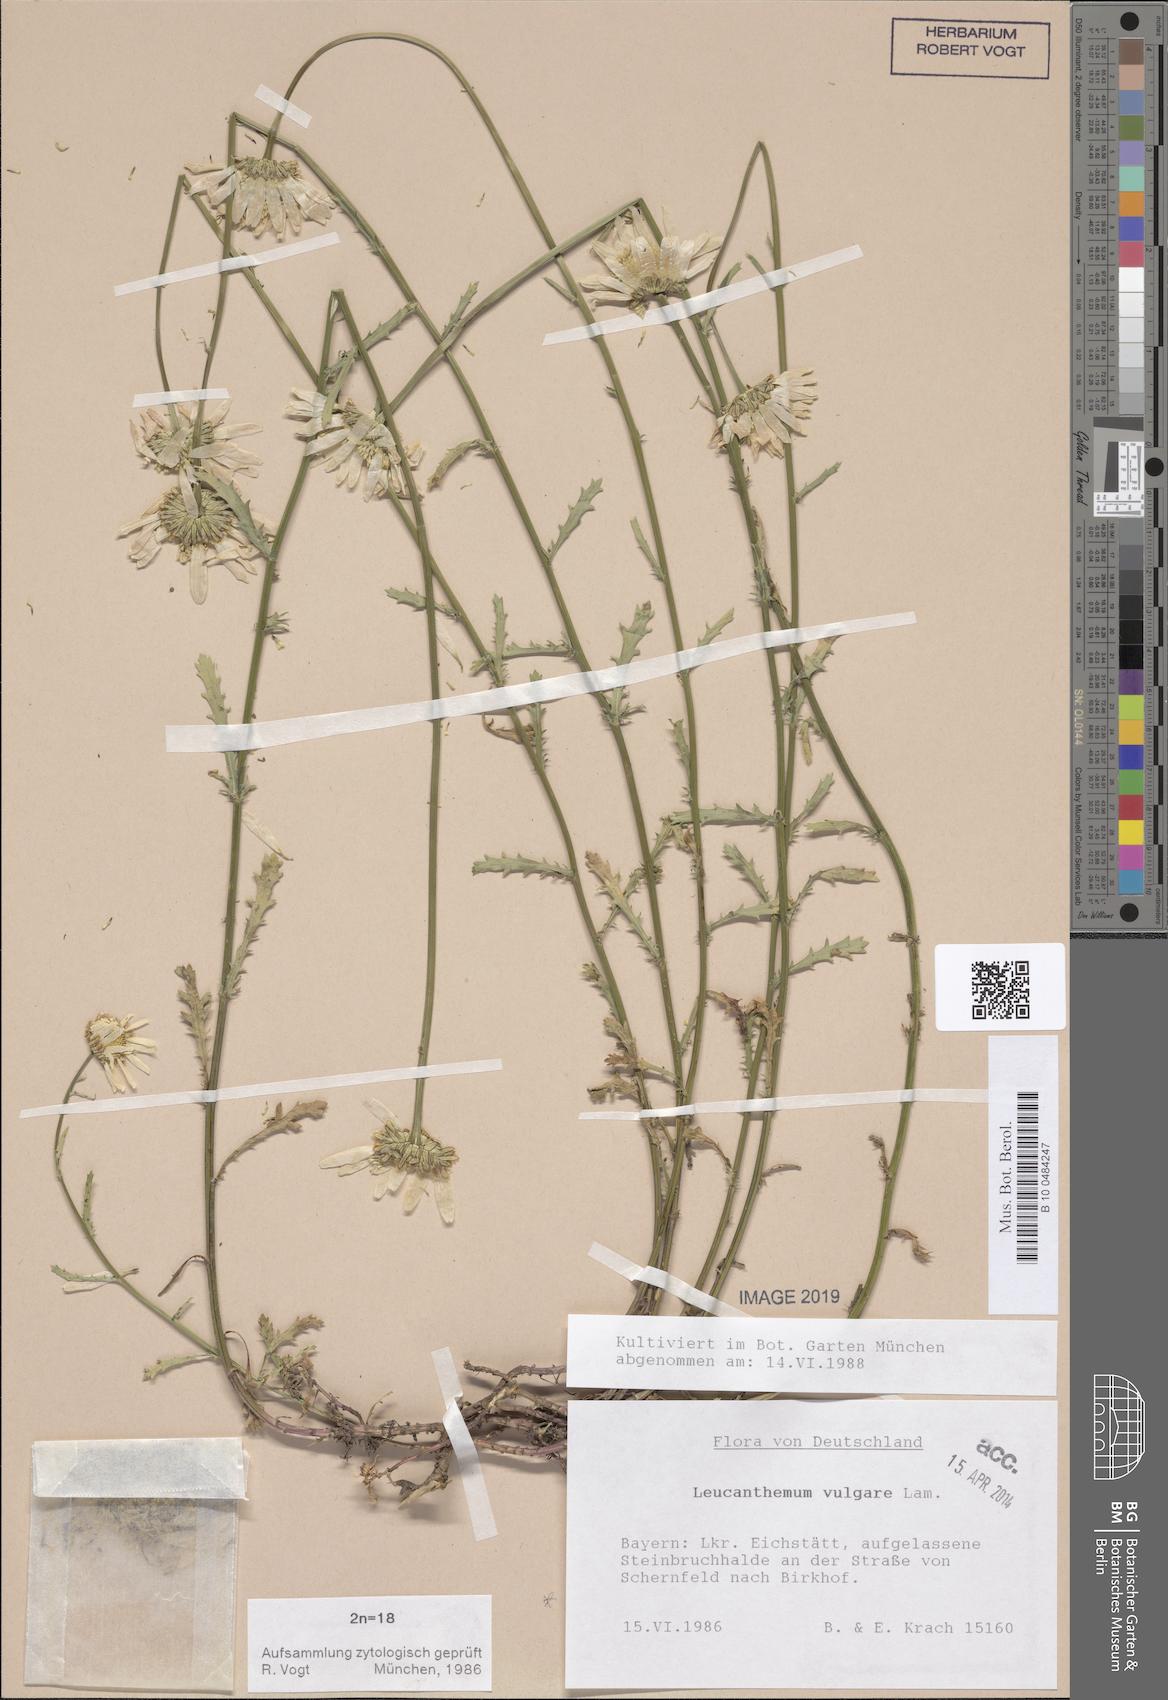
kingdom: Plantae
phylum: Tracheophyta
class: Magnoliopsida
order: Asterales
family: Asteraceae
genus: Leucanthemum
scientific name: Leucanthemum vulgare
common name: Oxeye daisy
